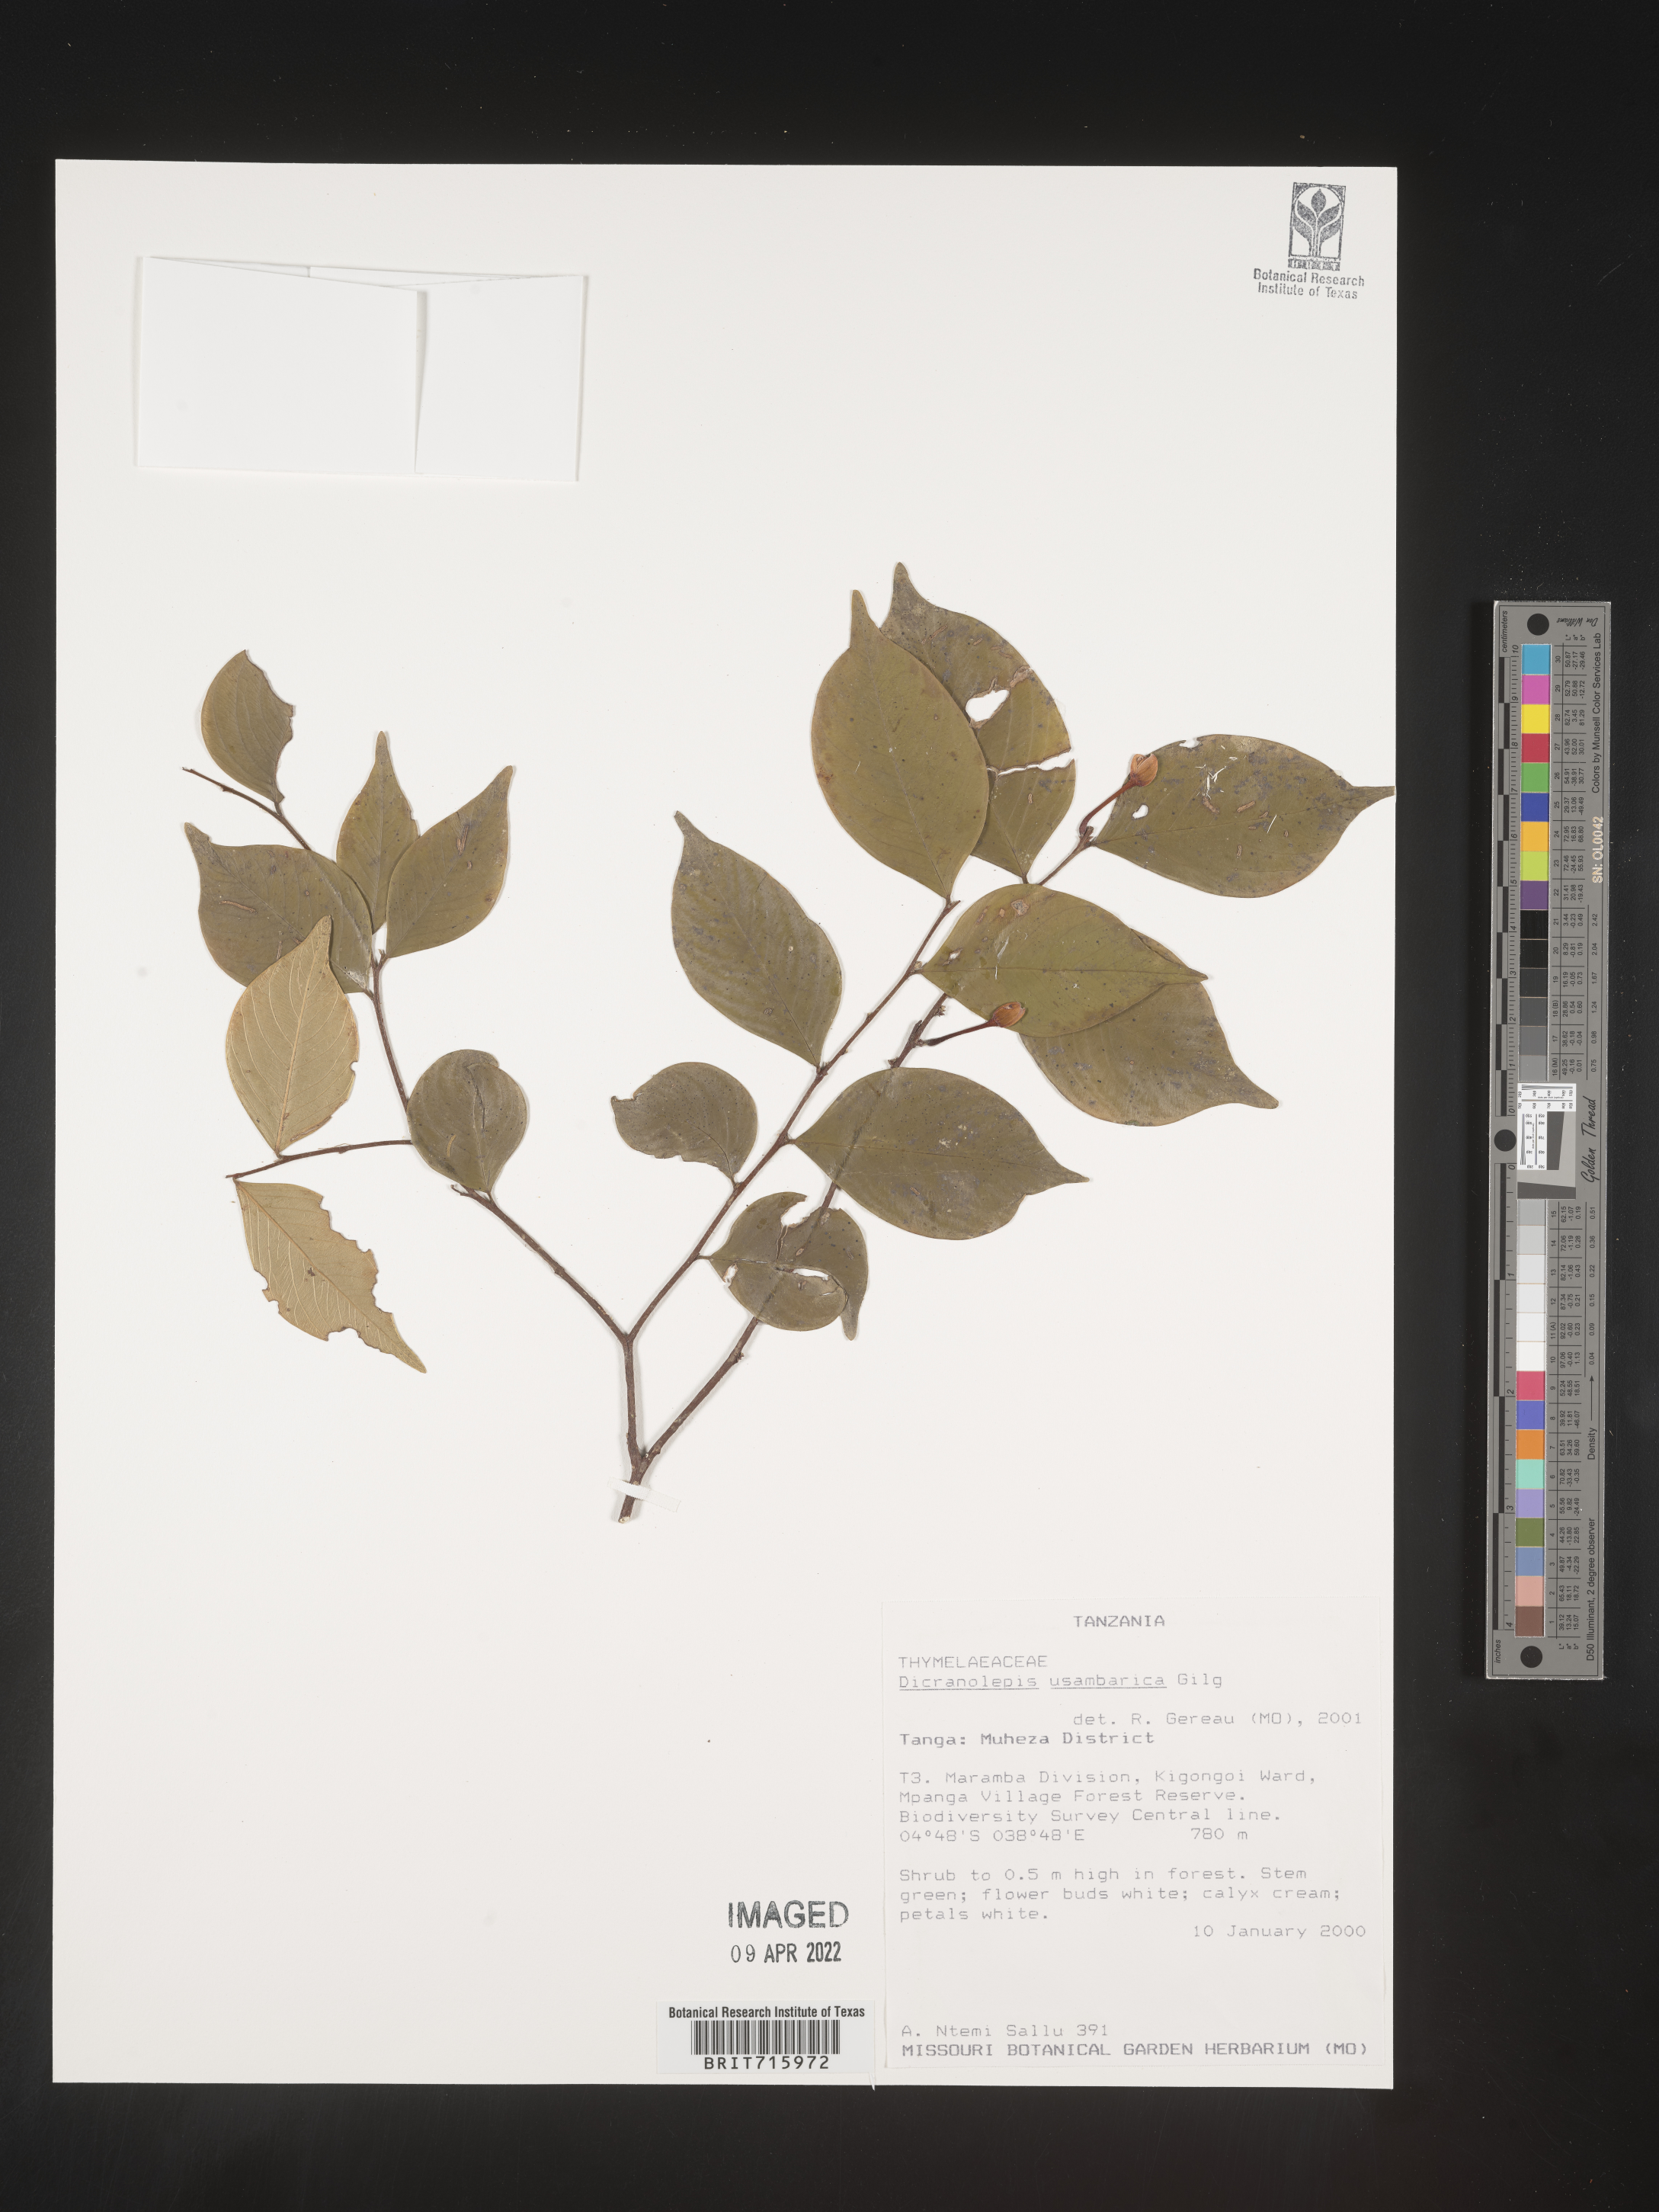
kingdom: Plantae
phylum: Tracheophyta
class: Magnoliopsida
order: Malvales
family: Thymelaeaceae
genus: Dicranolepis
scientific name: Dicranolepis
